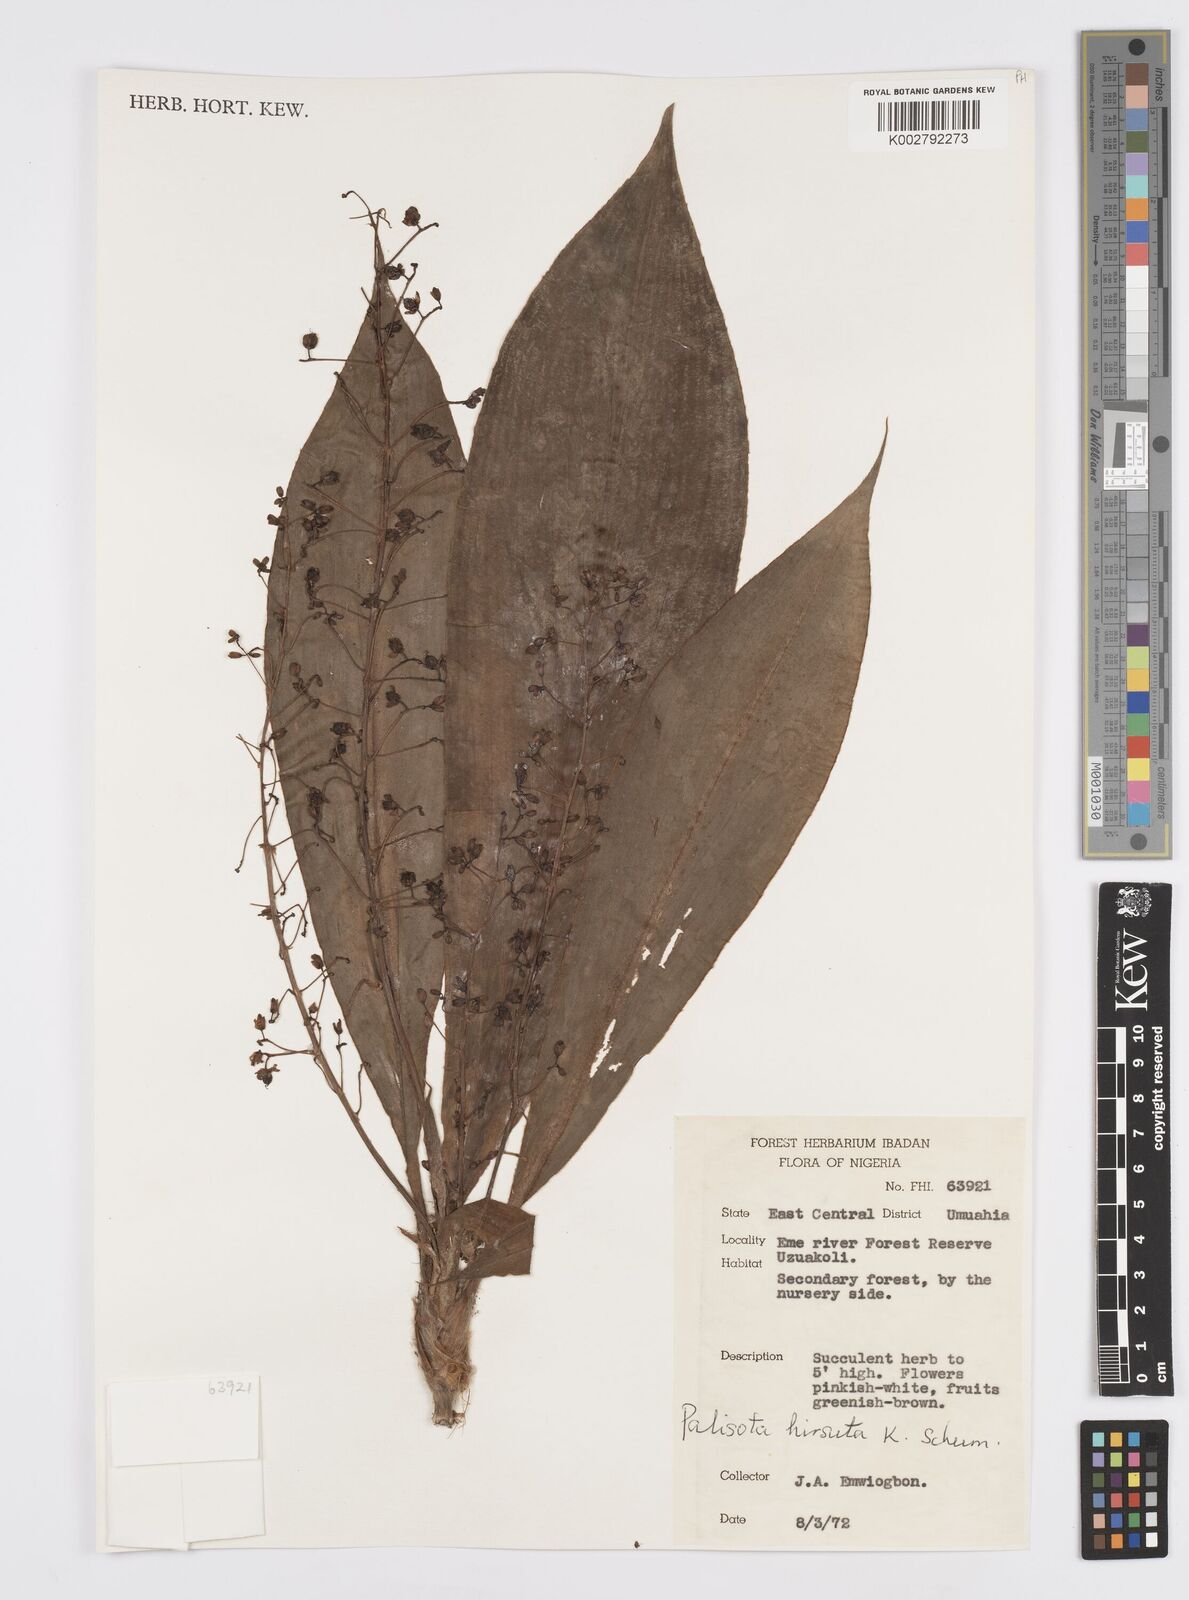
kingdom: Plantae
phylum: Tracheophyta
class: Liliopsida
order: Commelinales
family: Commelinaceae
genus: Palisota
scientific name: Palisota hirsuta
